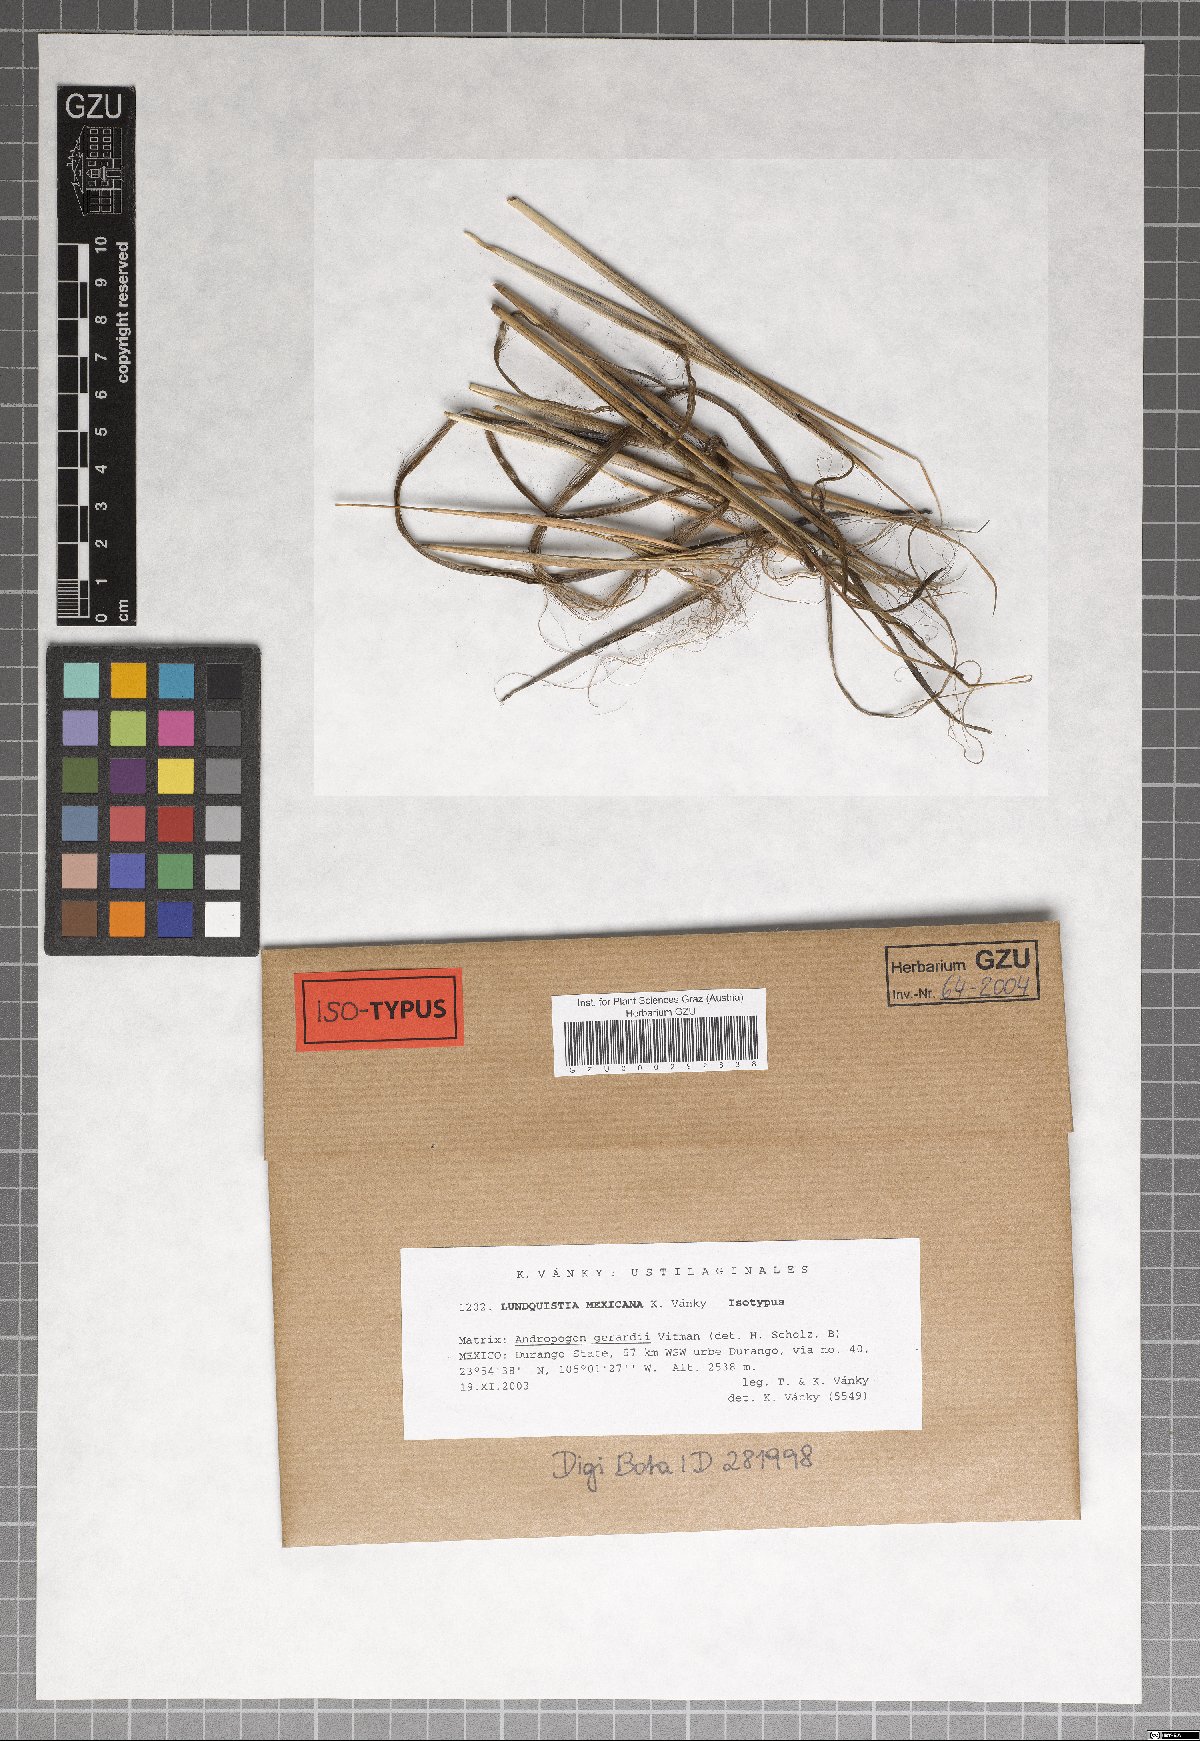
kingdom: Fungi
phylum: Basidiomycota
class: Ustilaginomycetes
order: Ustilaginales
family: Ustilaginaceae
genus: Anthracocystis
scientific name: Anthracocystis mexicana
